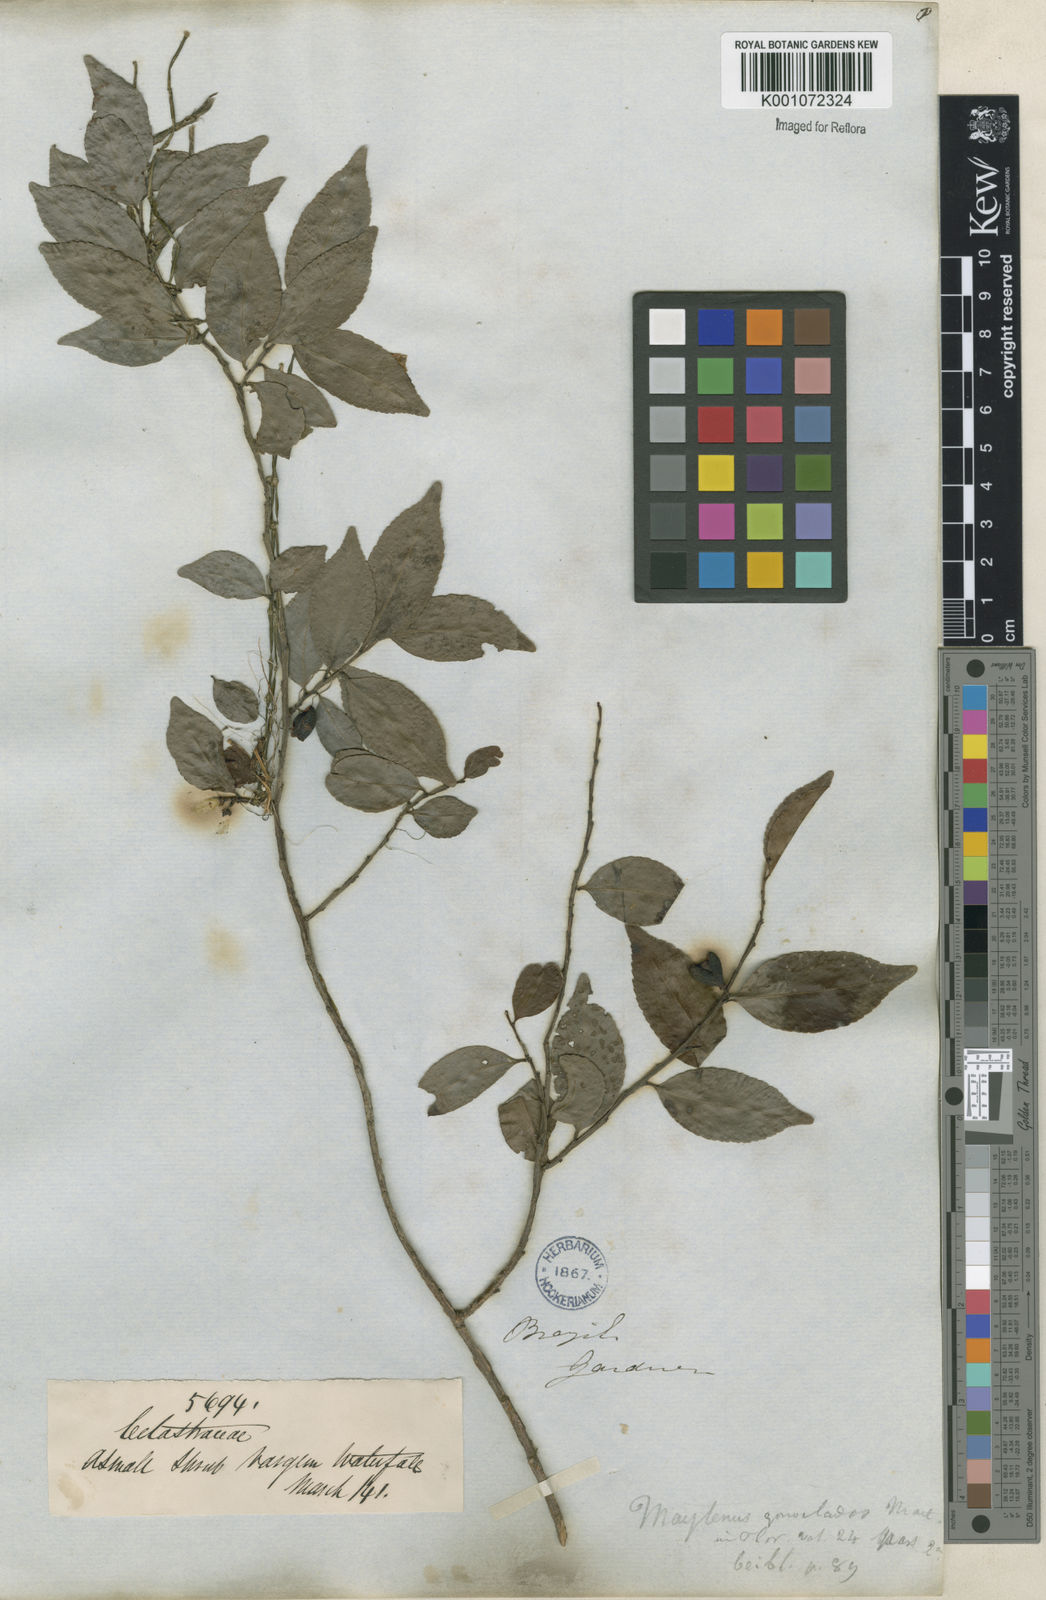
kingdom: Plantae
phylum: Tracheophyta
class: Magnoliopsida
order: Celastrales
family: Celastraceae
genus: Maytenus
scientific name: Maytenus
